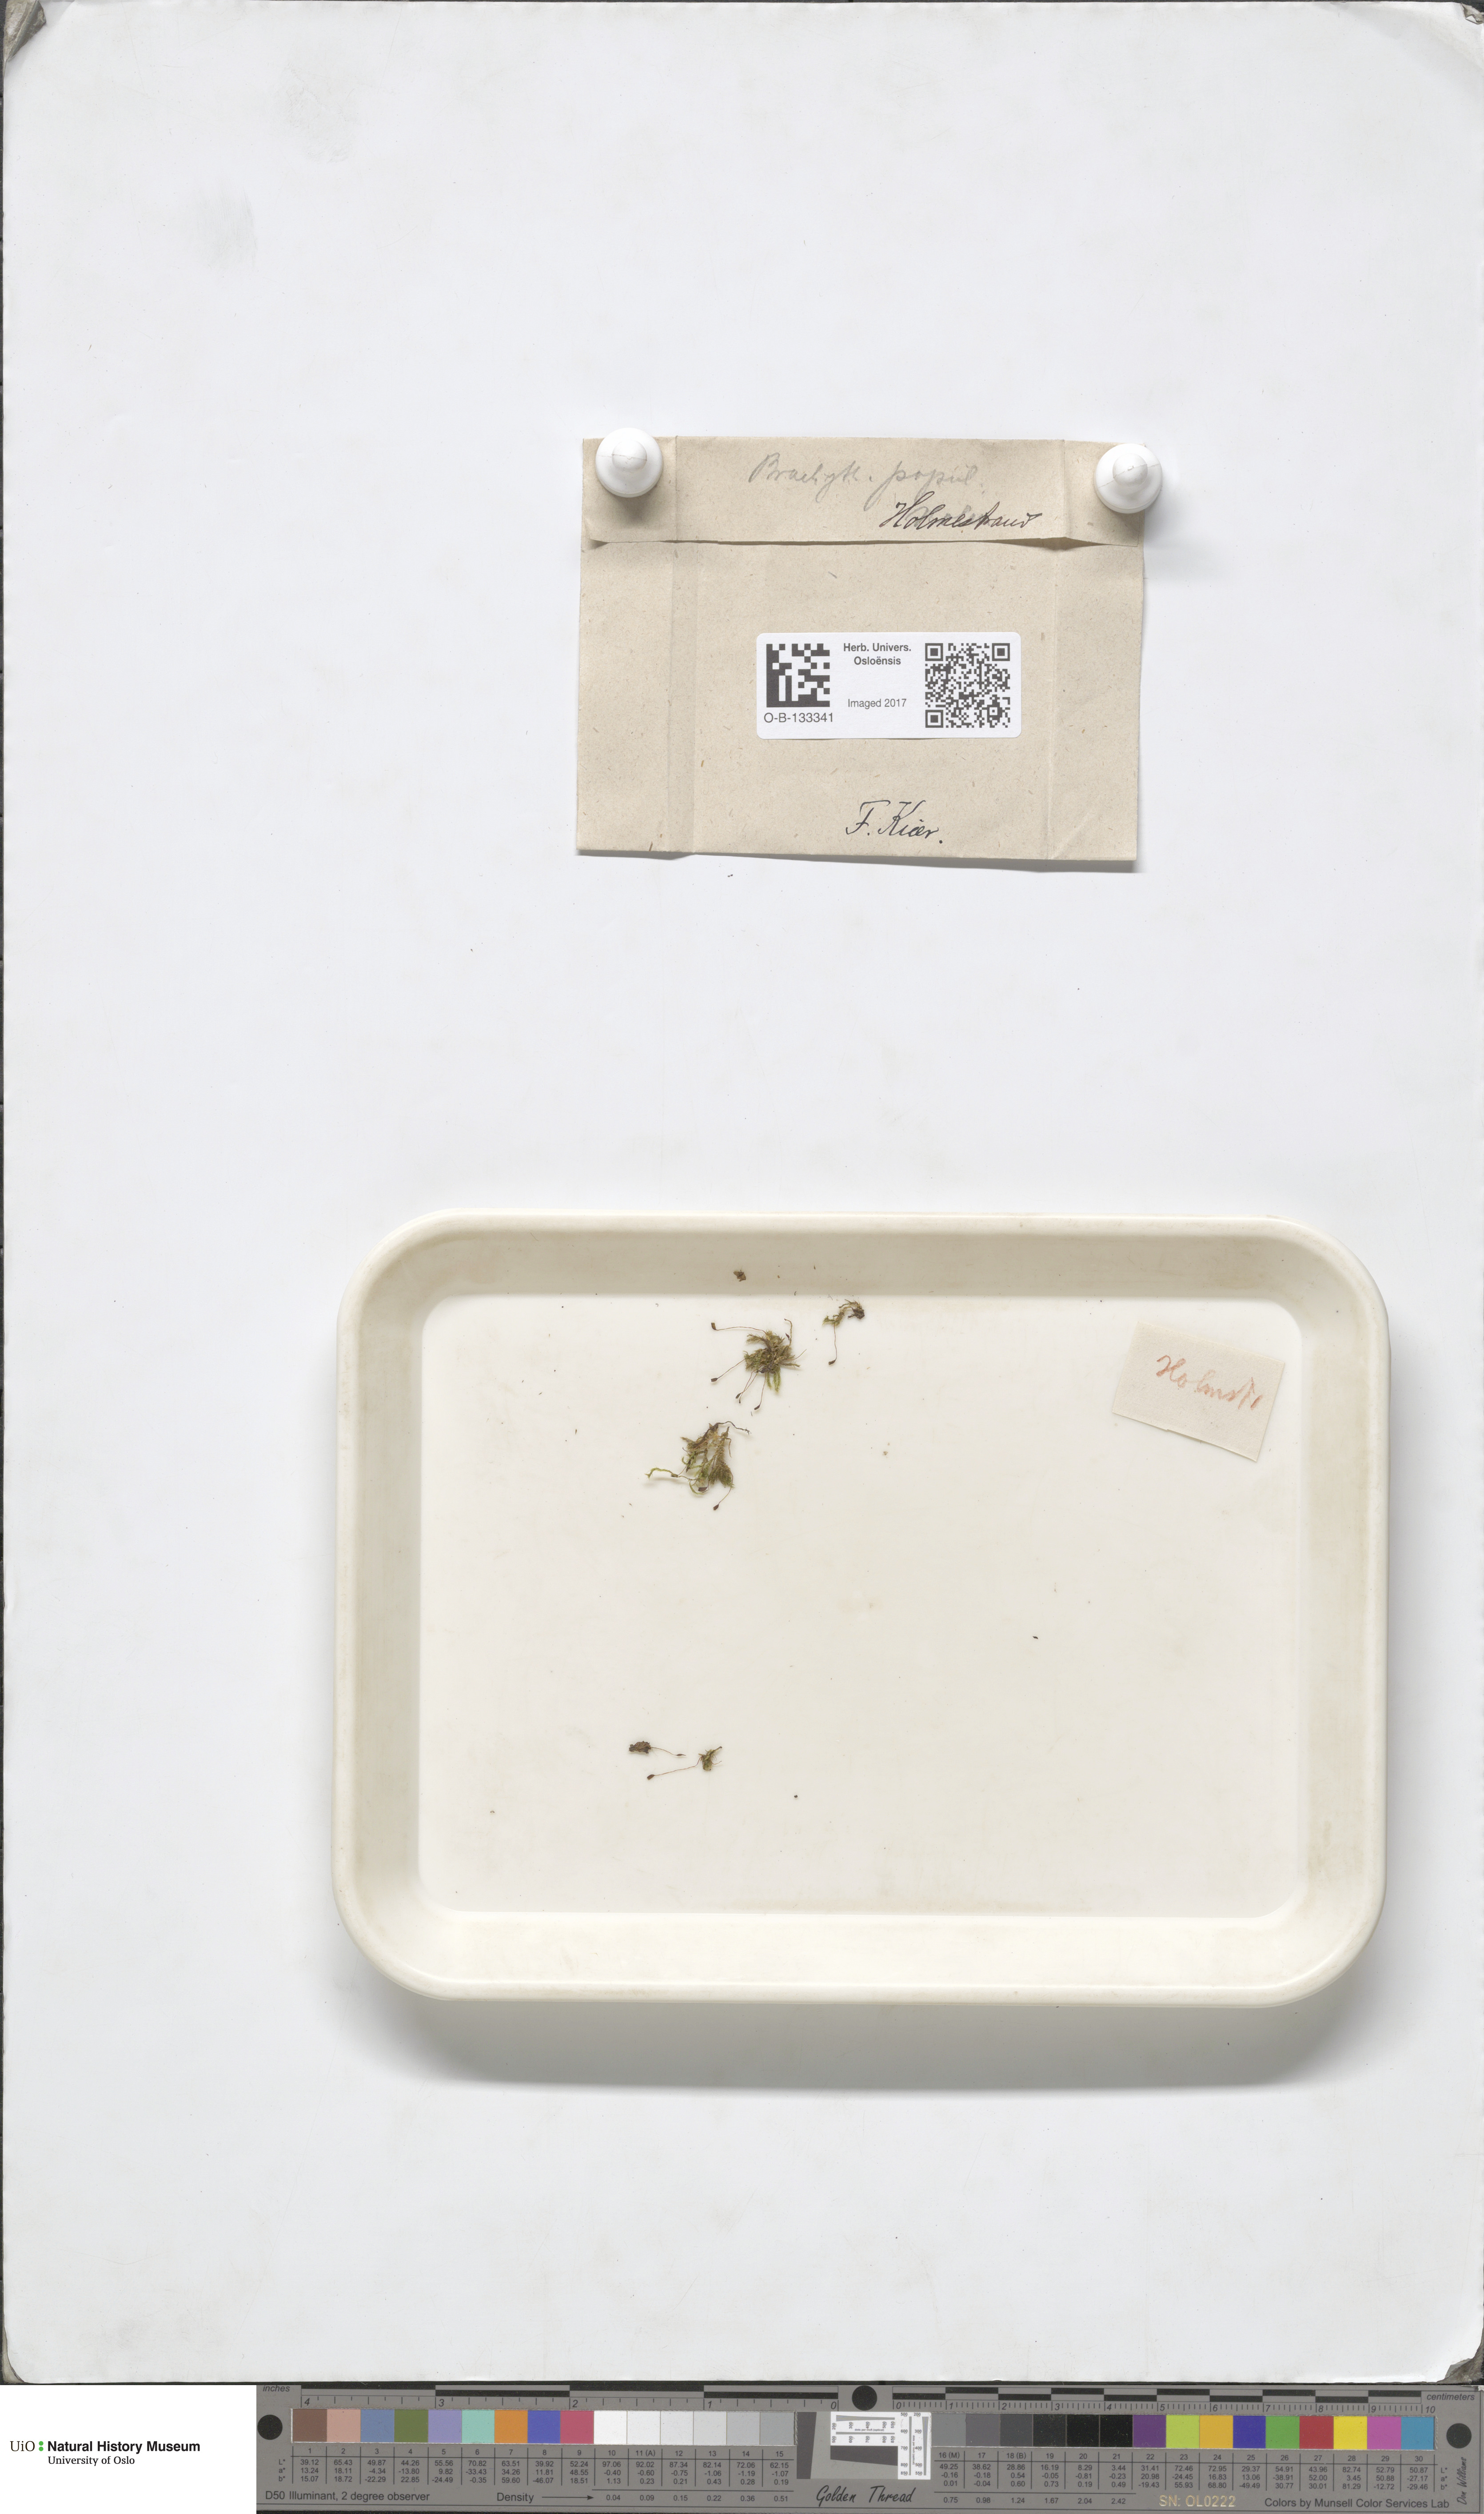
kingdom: Plantae
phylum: Bryophyta
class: Bryopsida
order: Hypnales
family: Brachytheciaceae
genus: Sciuro-hypnum
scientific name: Sciuro-hypnum plumosum
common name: Rusty feather-moss
